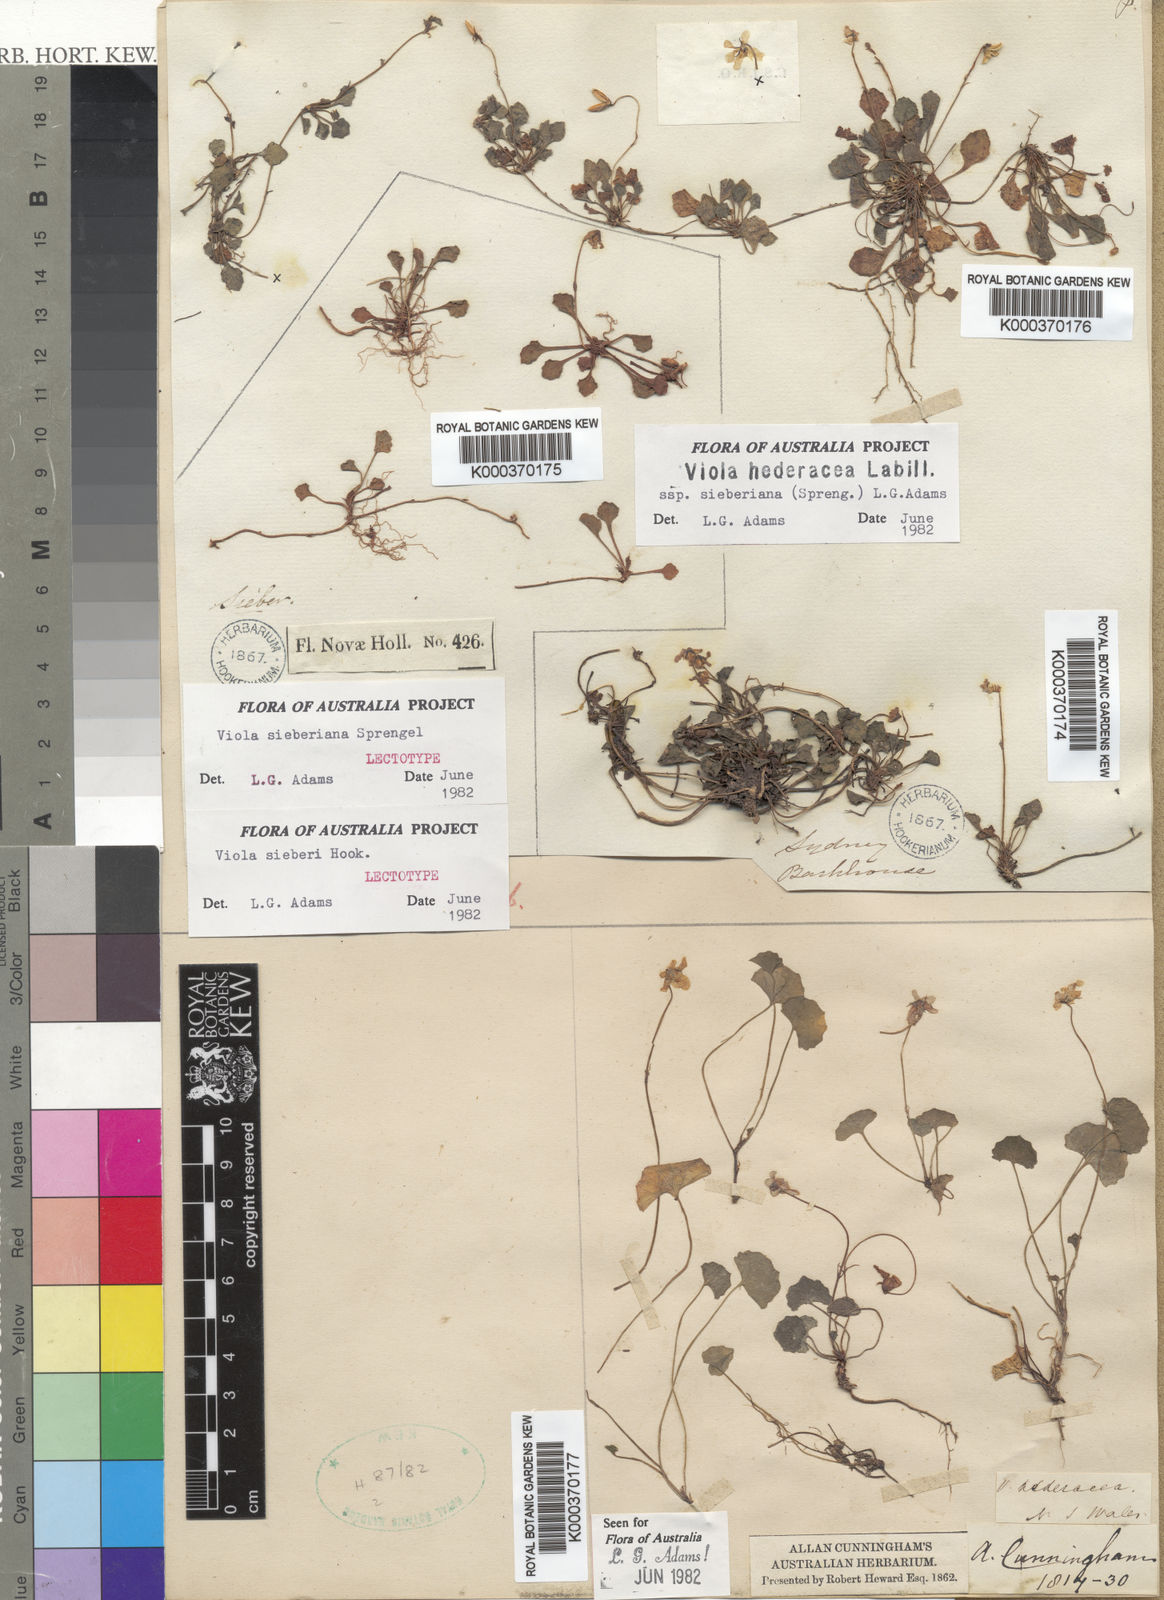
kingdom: Plantae
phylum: Tracheophyta
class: Magnoliopsida
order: Malpighiales
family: Violaceae
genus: Viola
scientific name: Viola sieberiana
